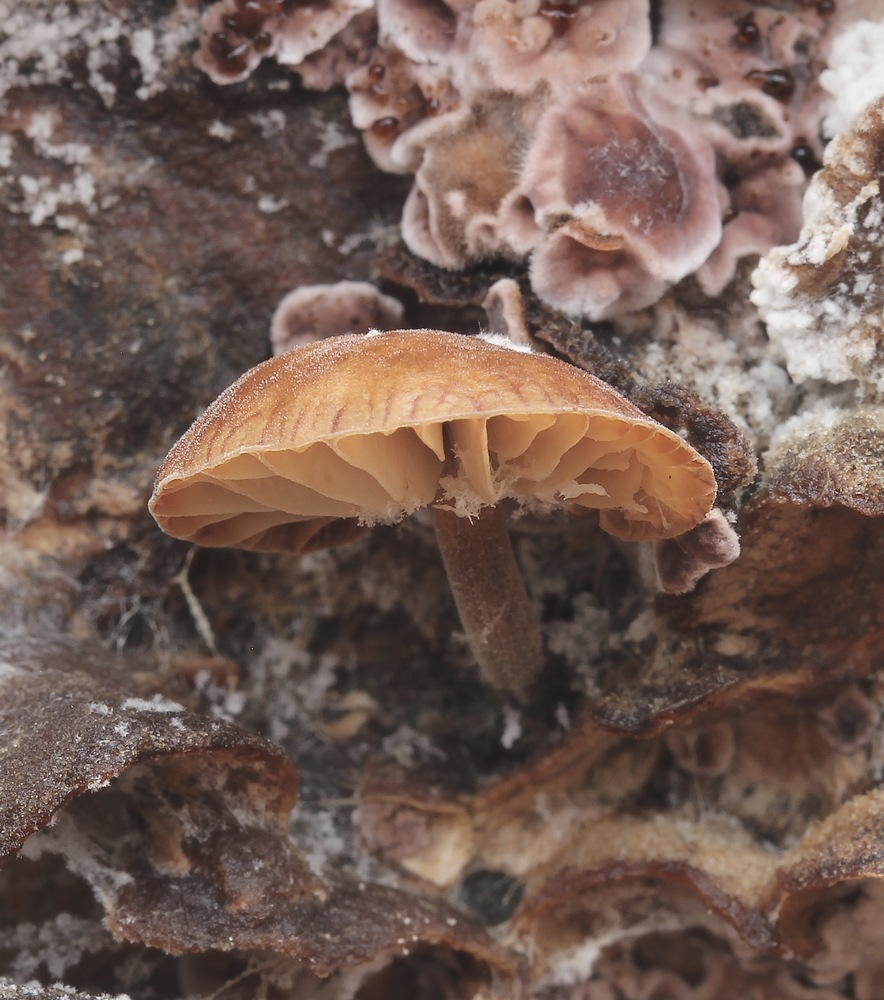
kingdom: Fungi
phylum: Basidiomycota
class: Agaricomycetes
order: Agaricales
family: Strophariaceae
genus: Deconica
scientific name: Deconica horizontalis
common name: ved-stråhat
